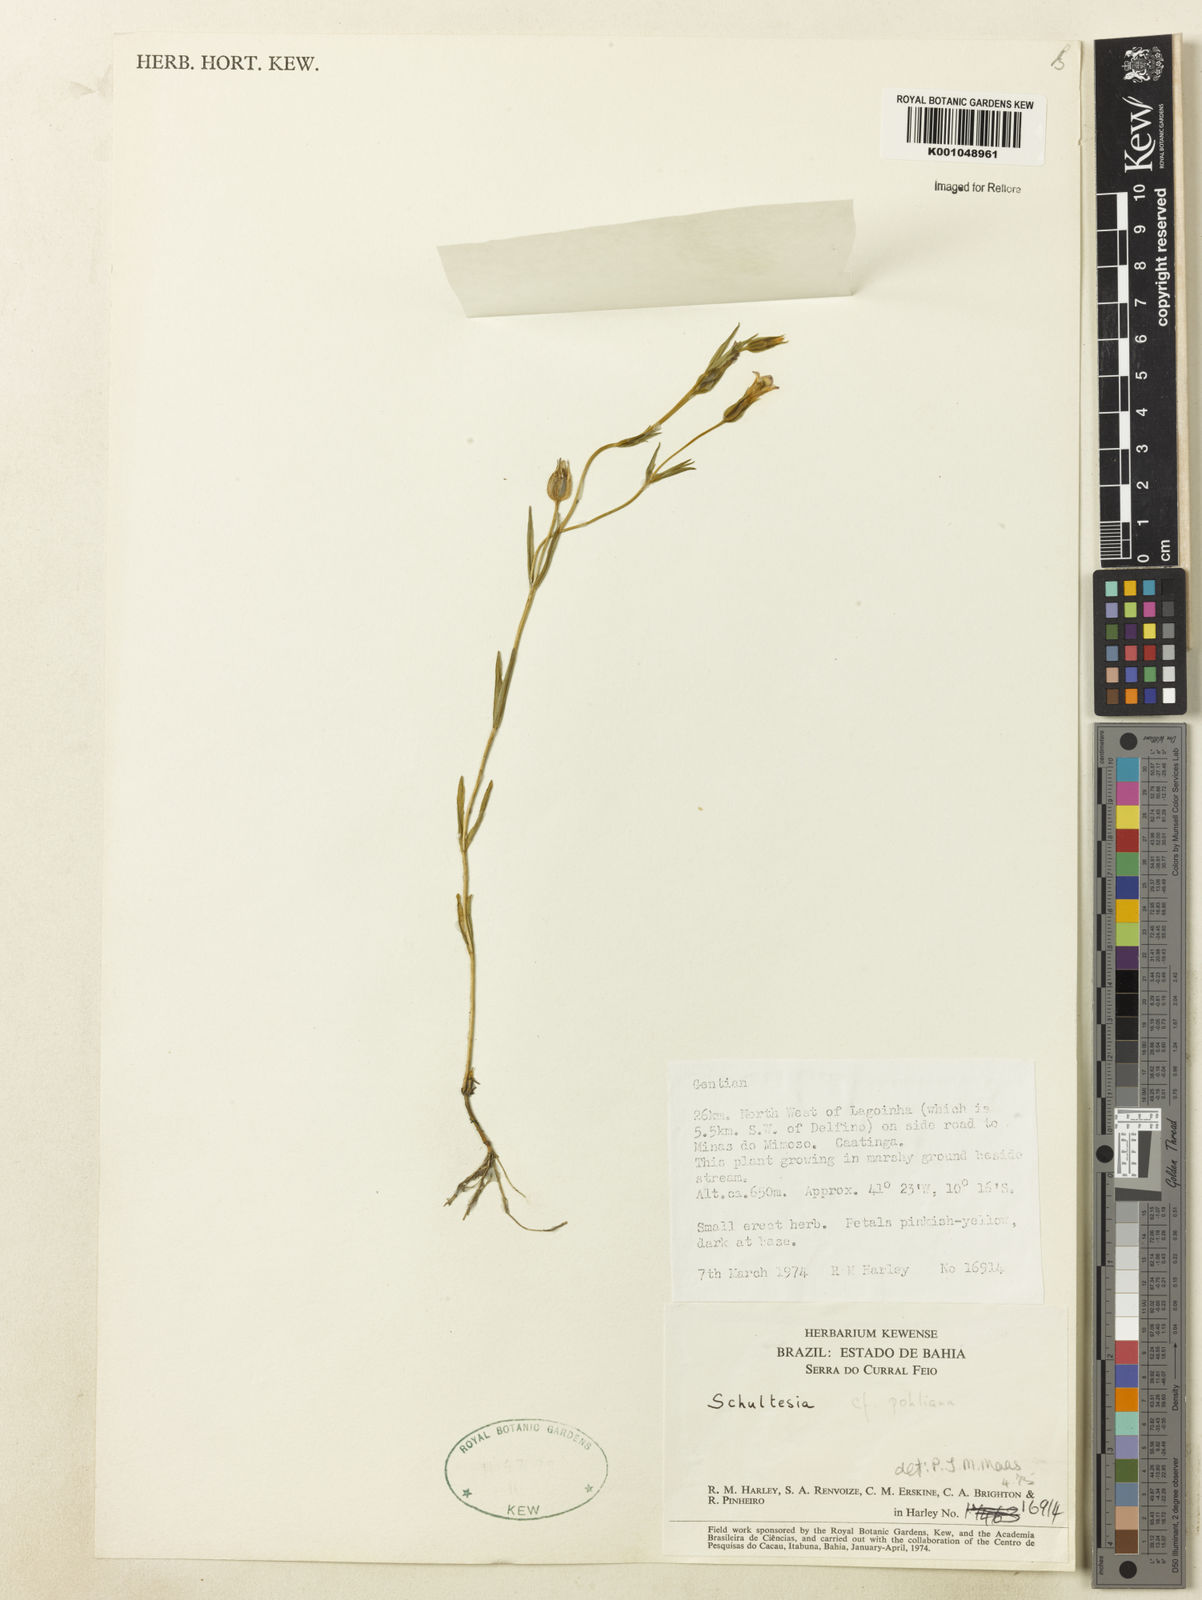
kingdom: Plantae
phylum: Tracheophyta
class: Magnoliopsida
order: Gentianales
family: Gentianaceae
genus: Schultesia
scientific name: Schultesia pohliana
